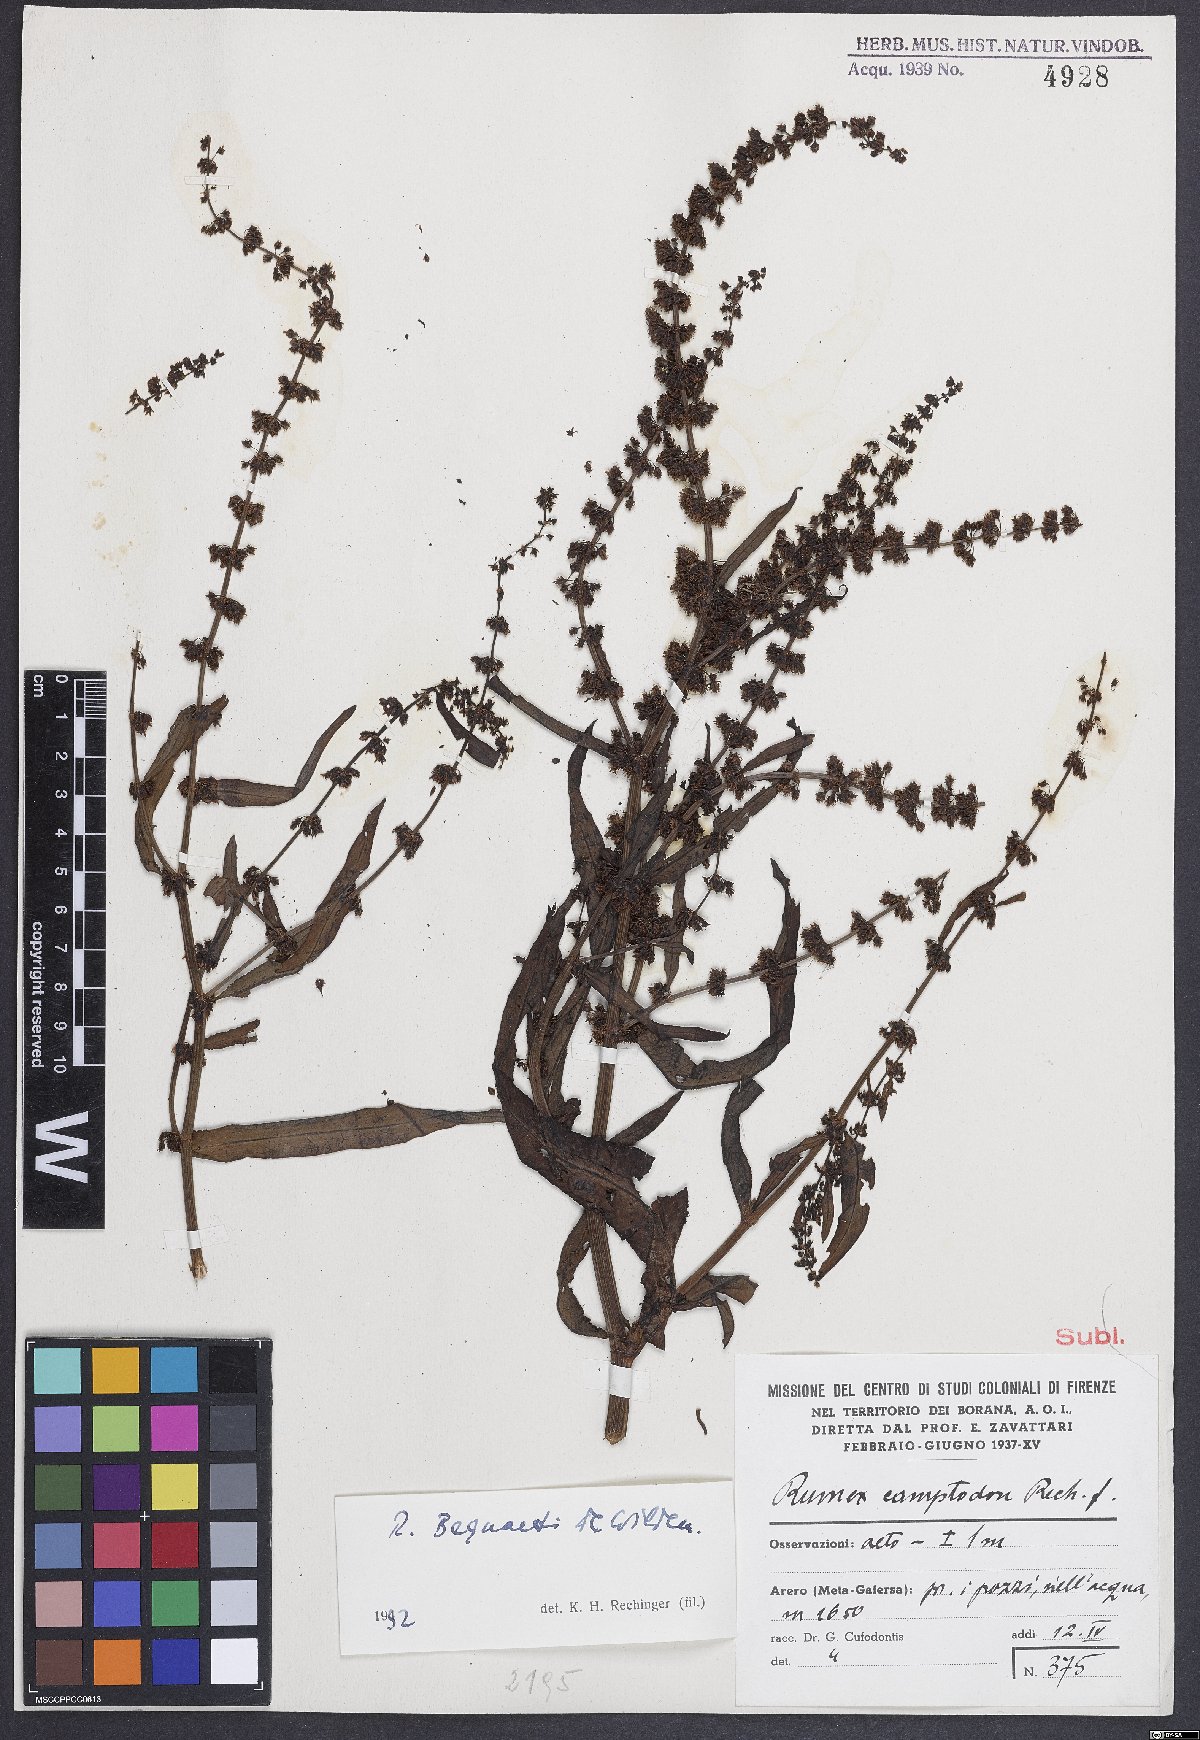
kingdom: Plantae
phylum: Tracheophyta
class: Magnoliopsida
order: Caryophyllales
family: Polygonaceae
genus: Rumex
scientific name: Rumex bequaertii
